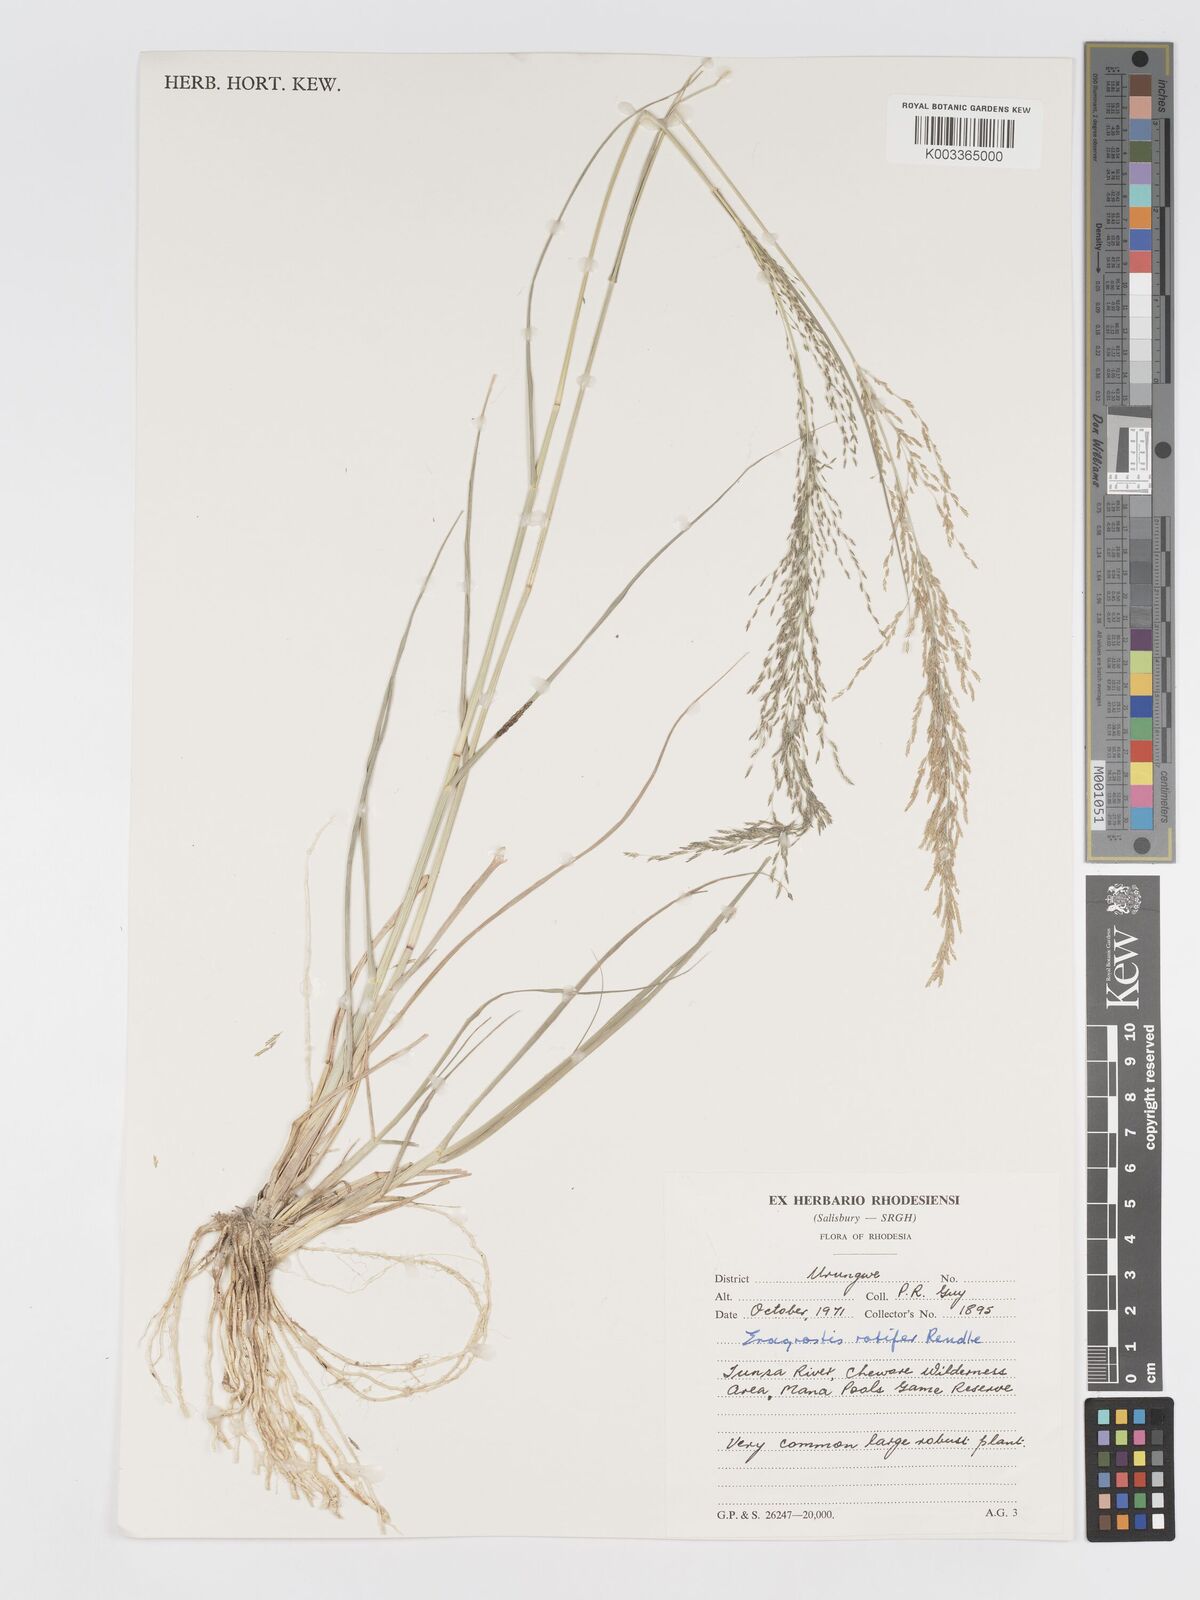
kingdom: Plantae
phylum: Tracheophyta
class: Liliopsida
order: Poales
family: Poaceae
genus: Eragrostis
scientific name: Eragrostis rotifer
